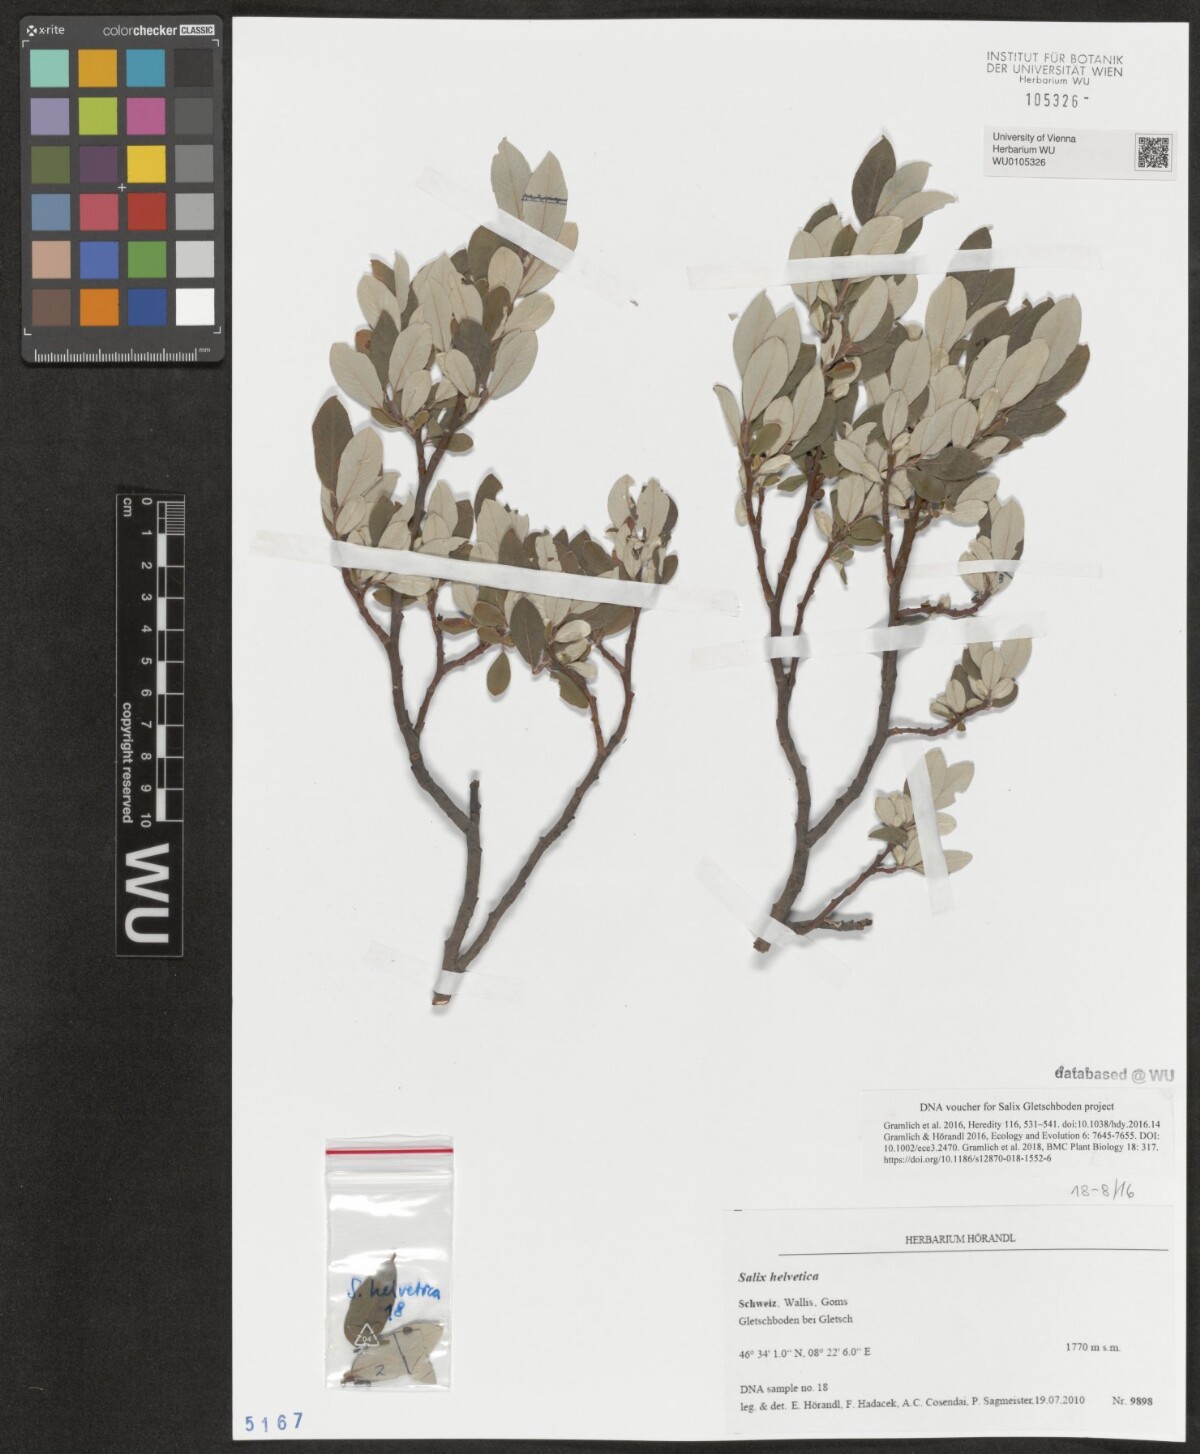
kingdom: Plantae
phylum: Tracheophyta
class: Magnoliopsida
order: Malpighiales
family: Salicaceae
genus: Salix
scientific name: Salix helvetica
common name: Swiss willow
